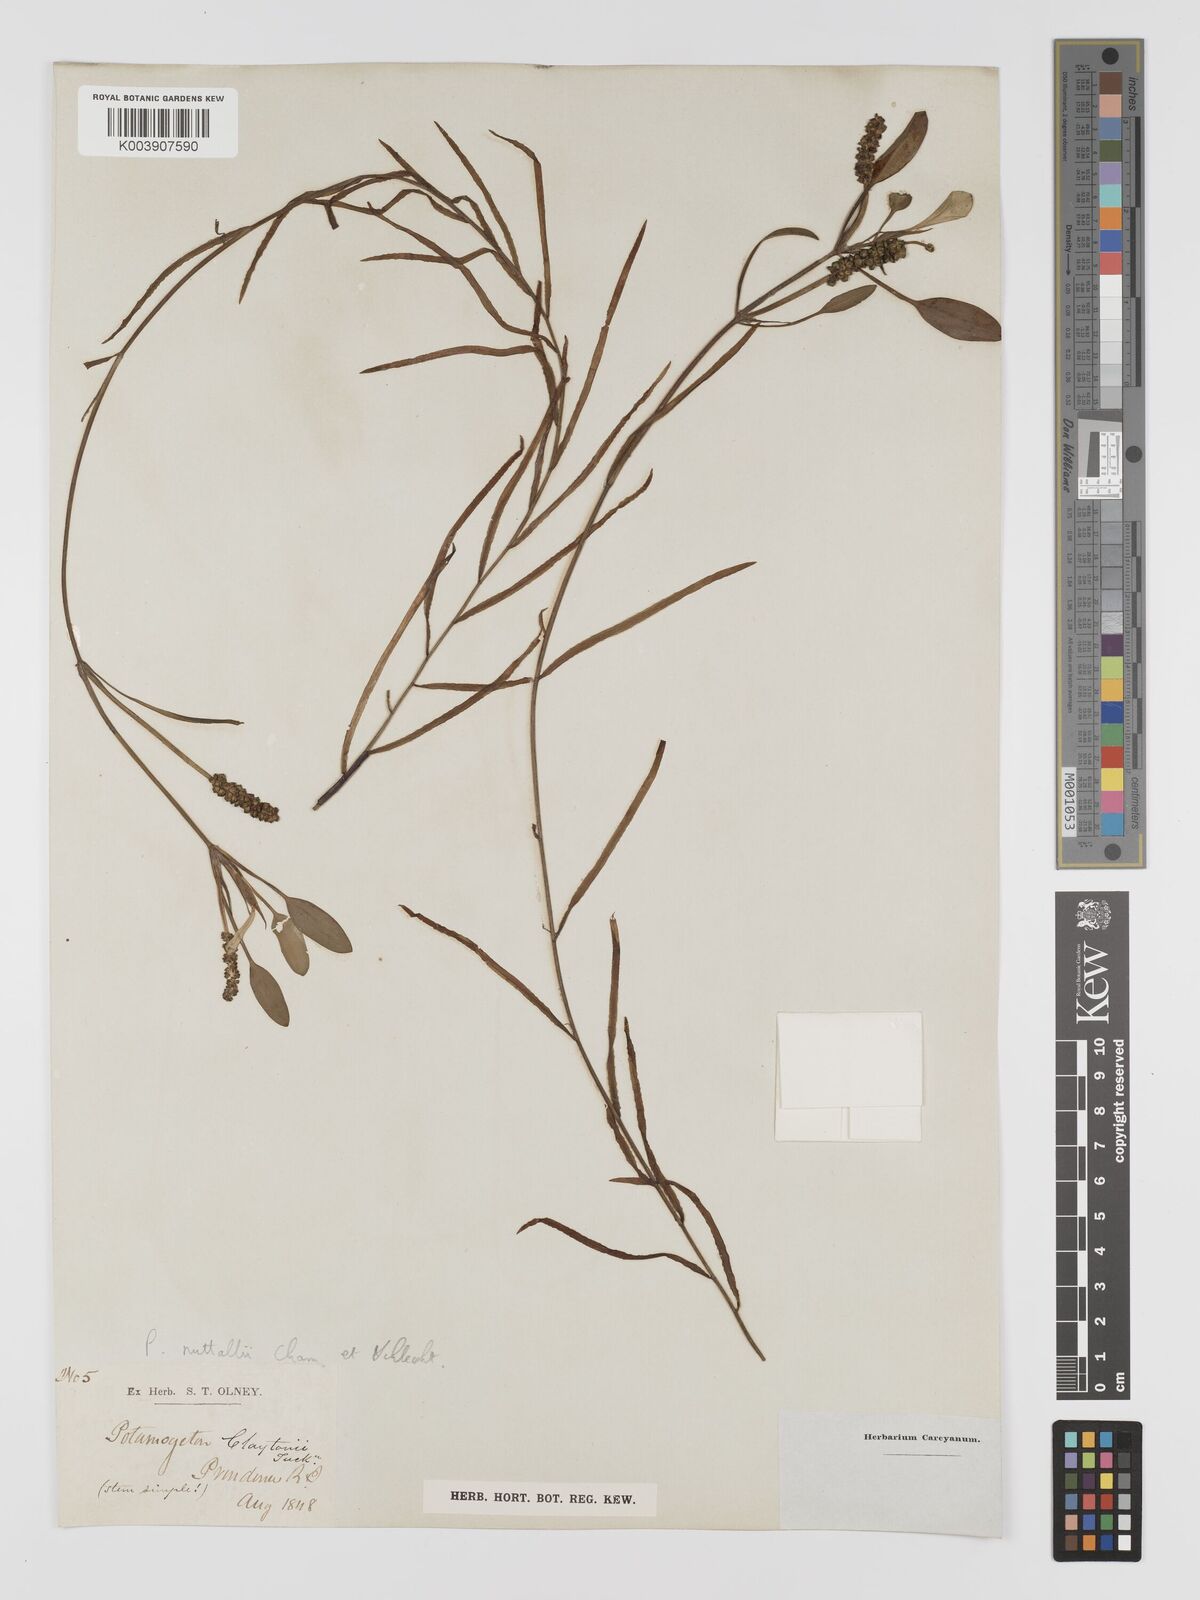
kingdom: Plantae
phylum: Tracheophyta
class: Liliopsida
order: Alismatales
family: Potamogetonaceae
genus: Potamogeton
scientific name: Potamogeton epihydrus
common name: American pondweed
